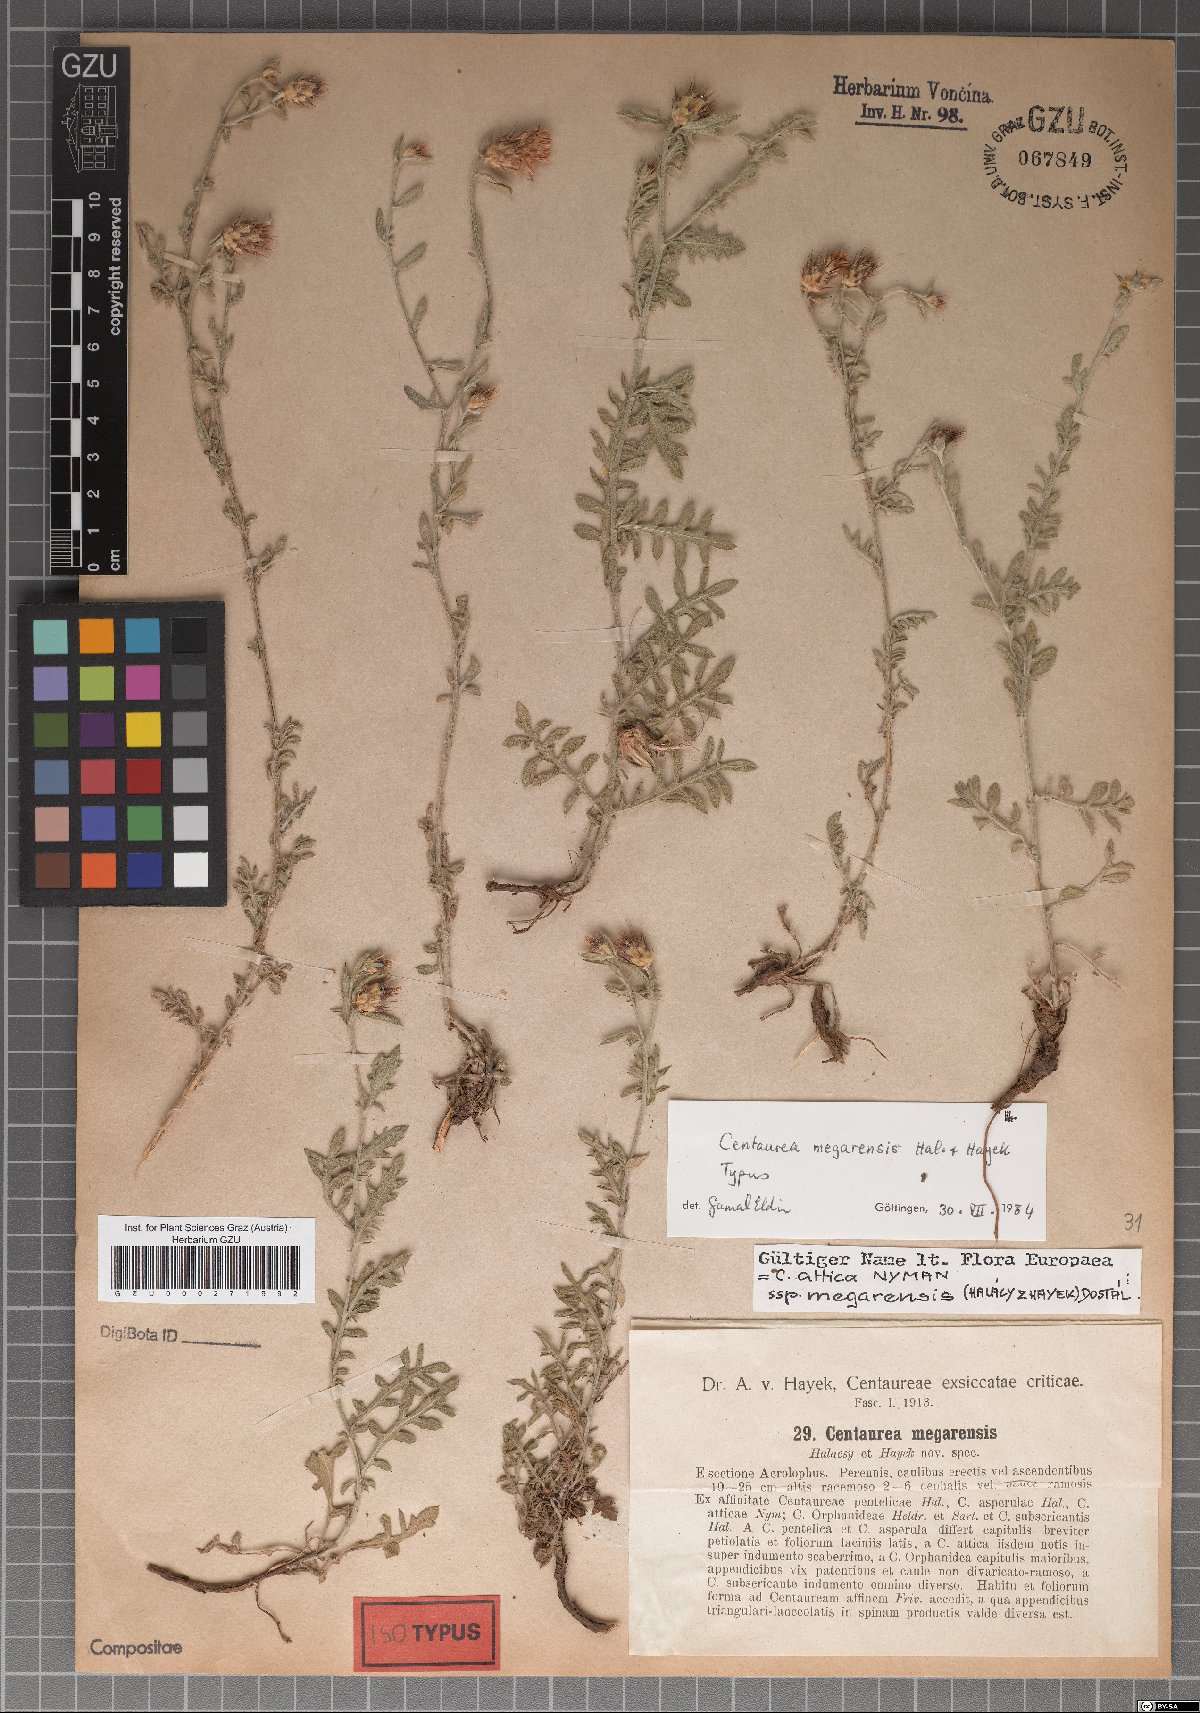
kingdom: Plantae
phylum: Tracheophyta
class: Magnoliopsida
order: Asterales
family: Asteraceae
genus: Centaurea
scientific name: Centaurea attica
